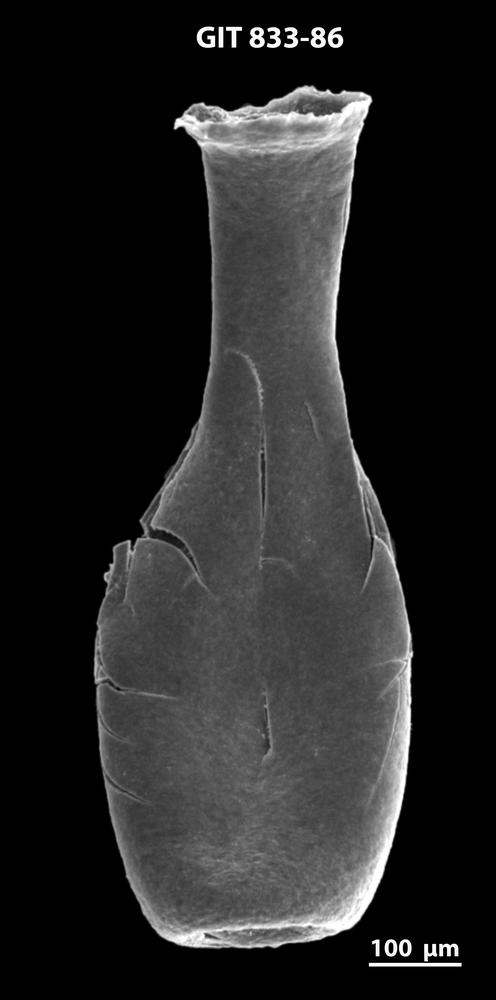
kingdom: Animalia
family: Lagenochitinidae
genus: Lagenochitina
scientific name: Lagenochitina megaesthonica
